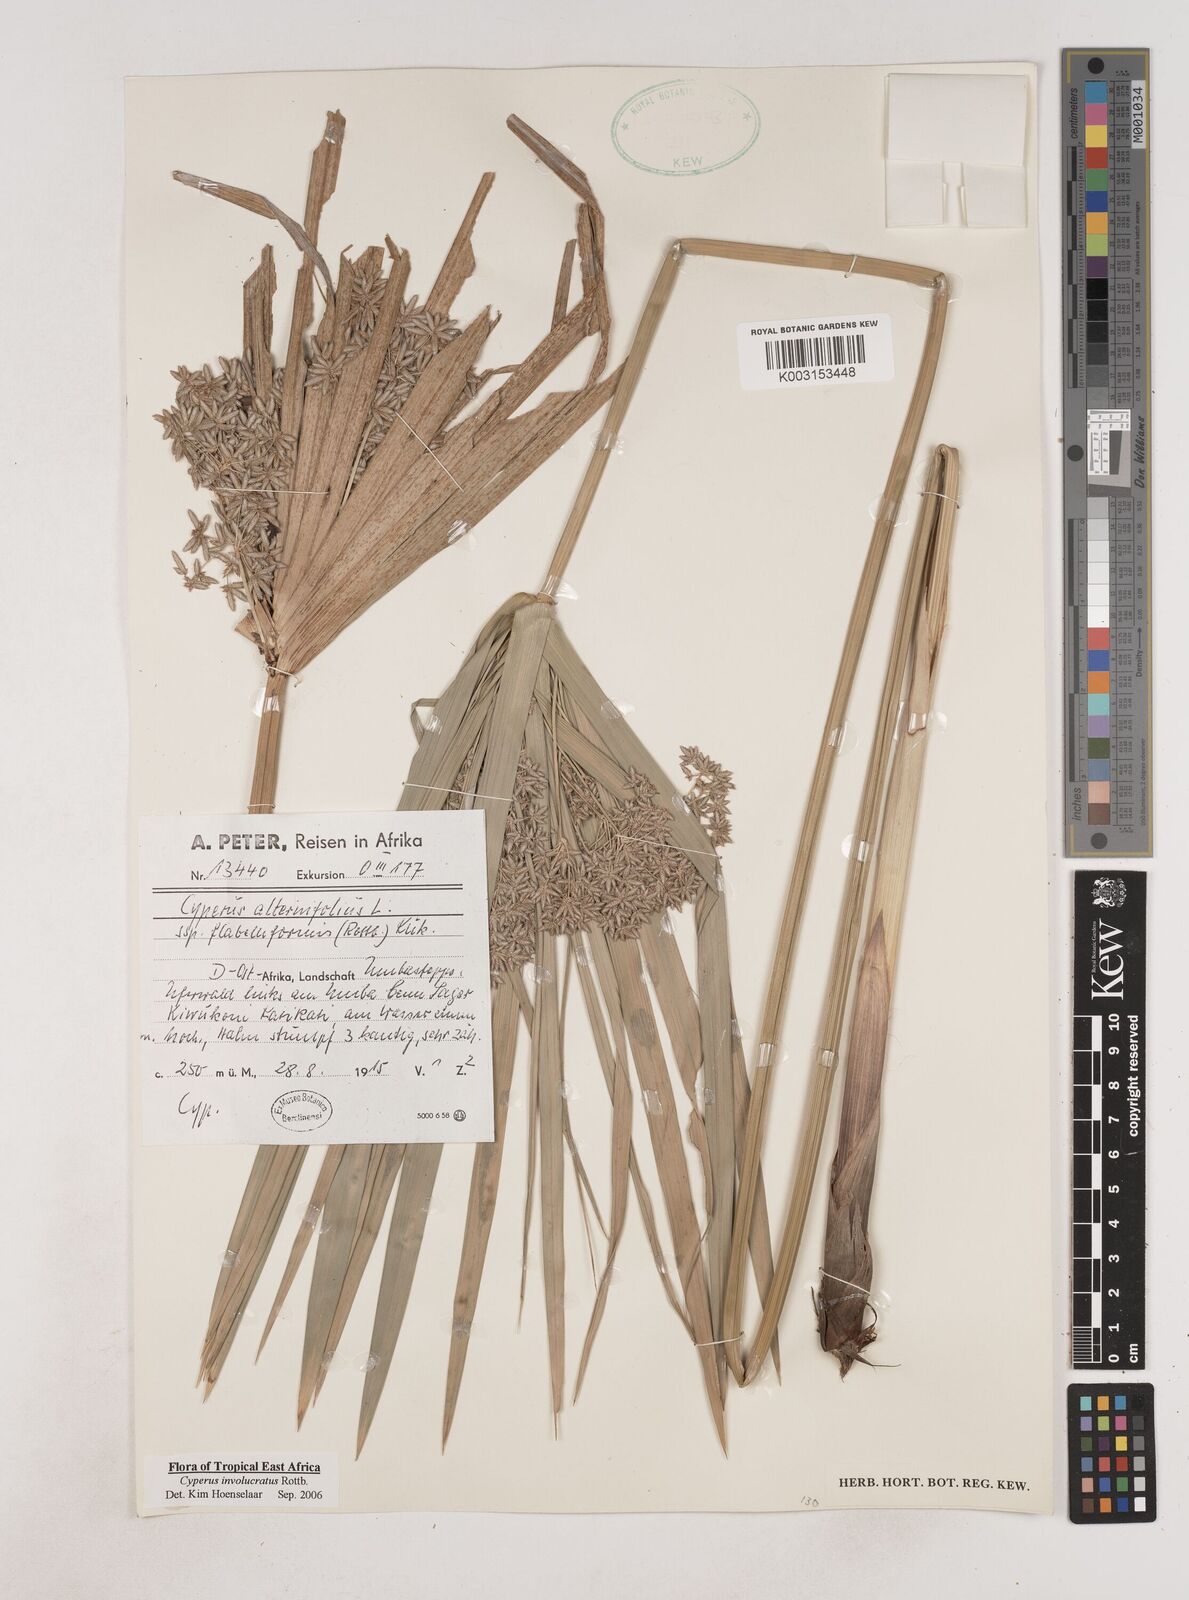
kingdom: Plantae
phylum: Tracheophyta
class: Liliopsida
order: Poales
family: Cyperaceae
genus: Cyperus
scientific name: Cyperus alternifolius
